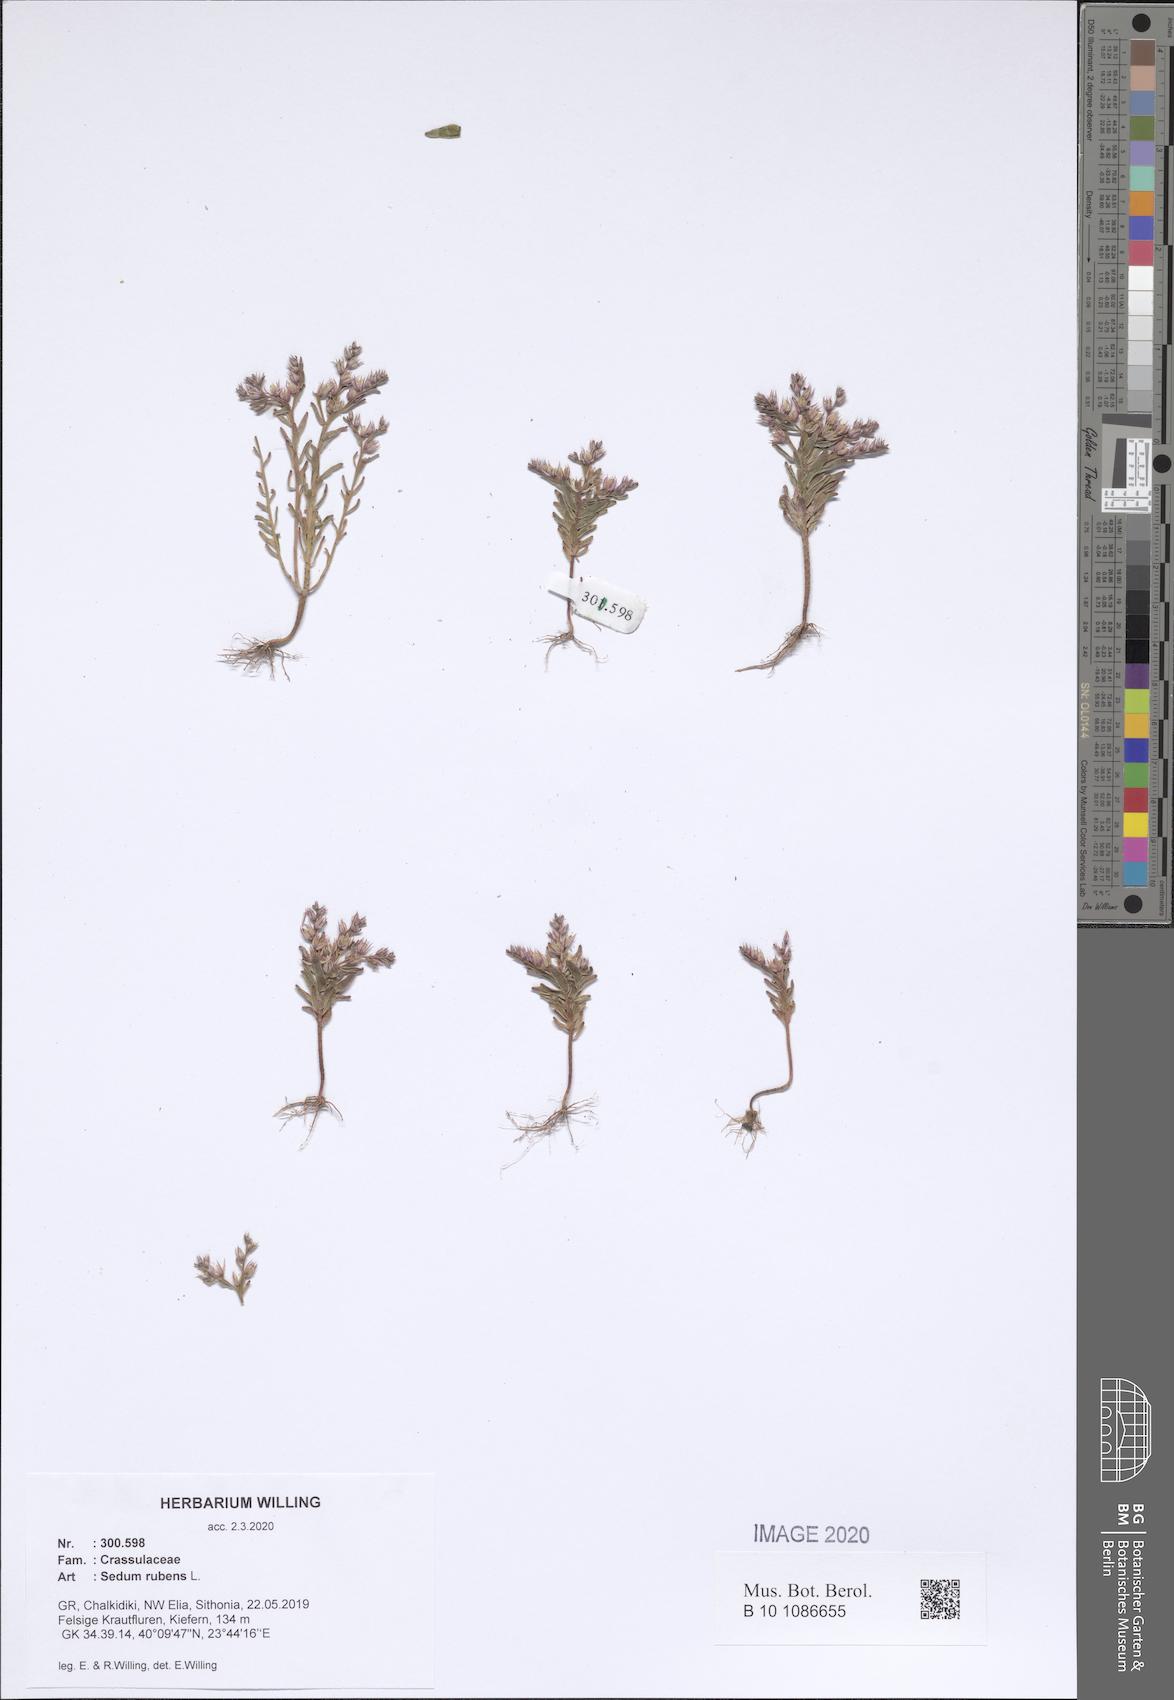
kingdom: Plantae
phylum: Tracheophyta
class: Magnoliopsida
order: Saxifragales
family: Crassulaceae
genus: Sedum
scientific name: Sedum rubens
